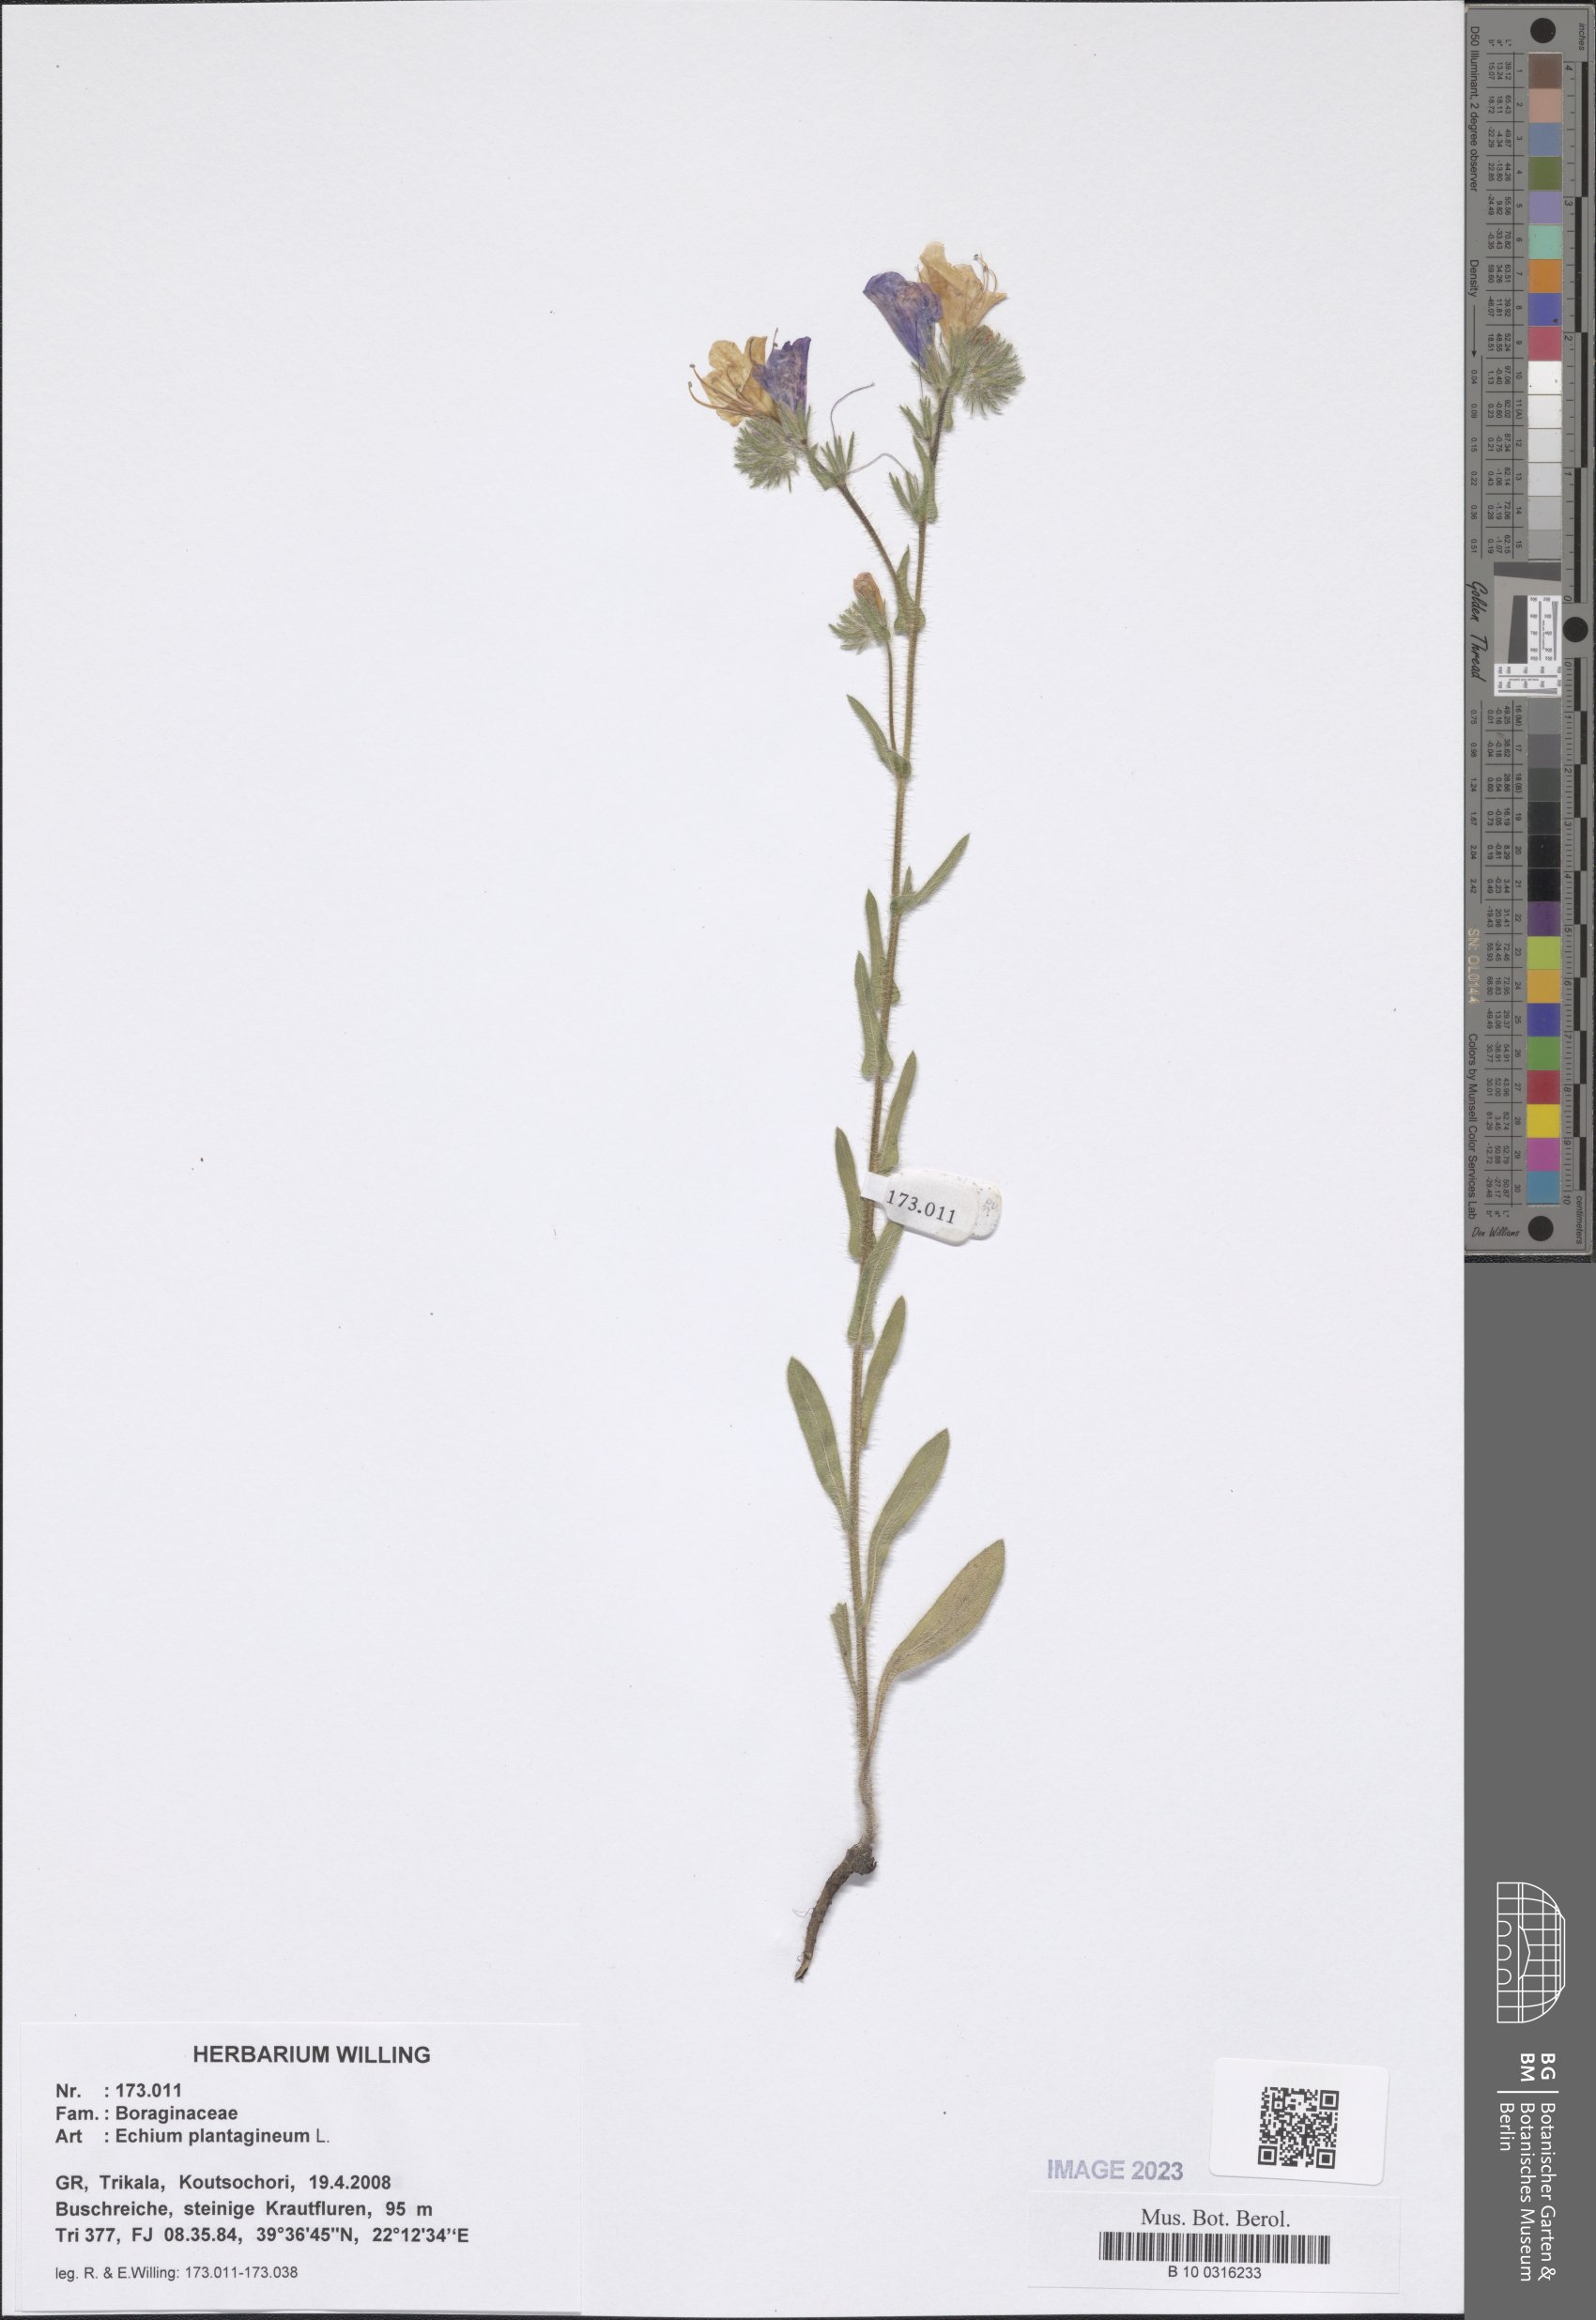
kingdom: Plantae
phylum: Tracheophyta
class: Magnoliopsida
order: Boraginales
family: Boraginaceae
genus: Echium
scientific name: Echium plantagineum
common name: Purple viper's-bugloss
